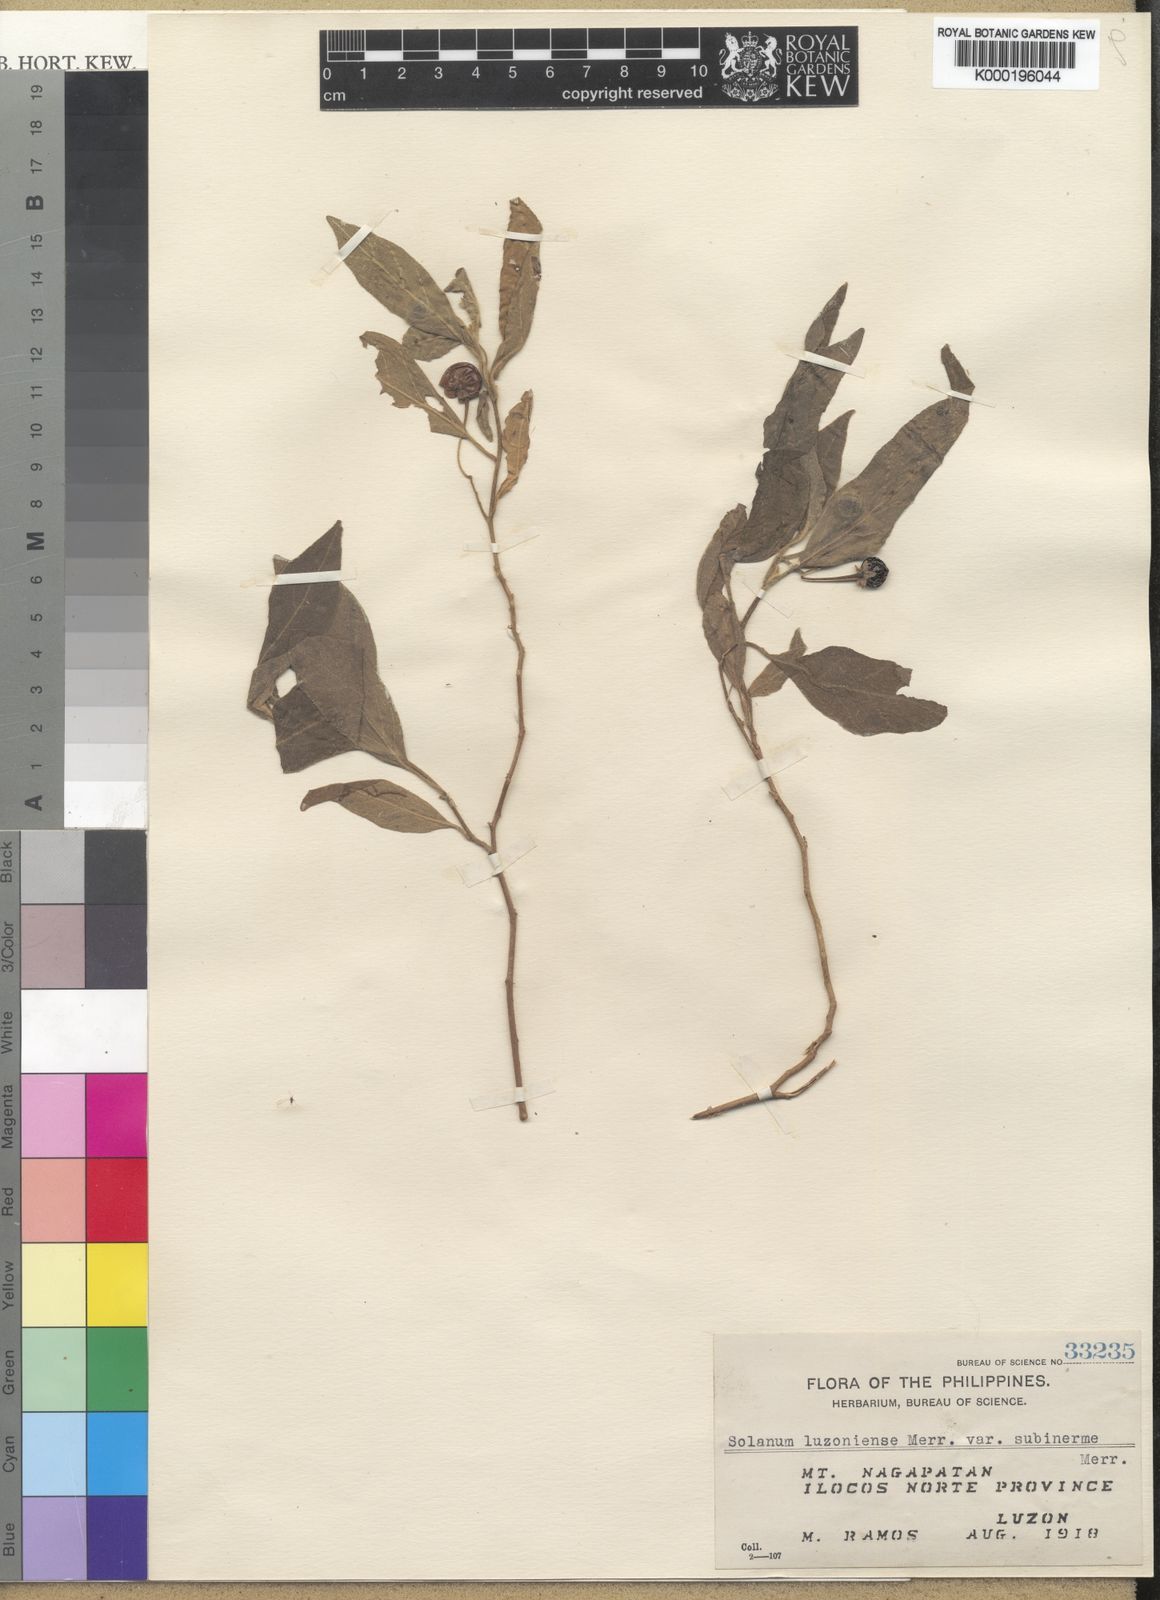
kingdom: Plantae
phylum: Tracheophyta
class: Magnoliopsida
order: Solanales
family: Solanaceae
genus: Solanum
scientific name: Solanum retrorsum
